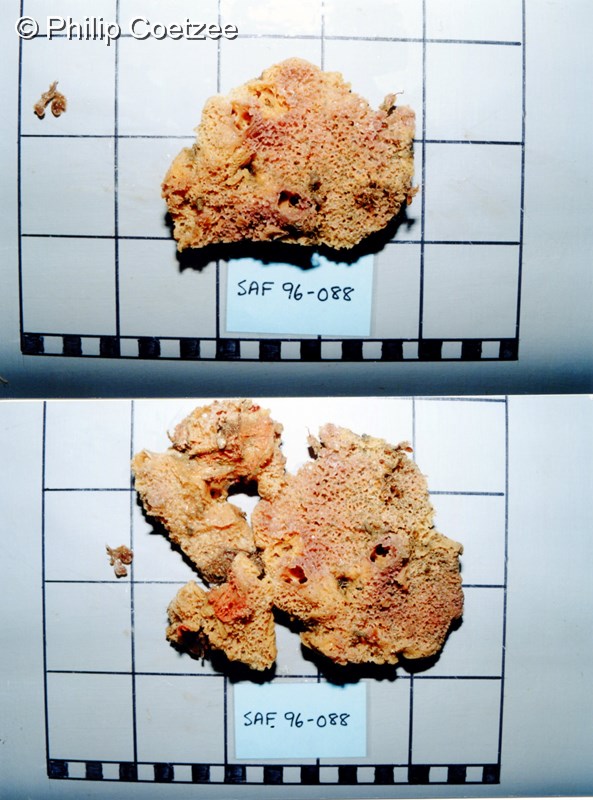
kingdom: Animalia
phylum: Porifera
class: Demospongiae
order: Bubarida
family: Dictyonellidae
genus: Acanthella
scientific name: Acanthella
